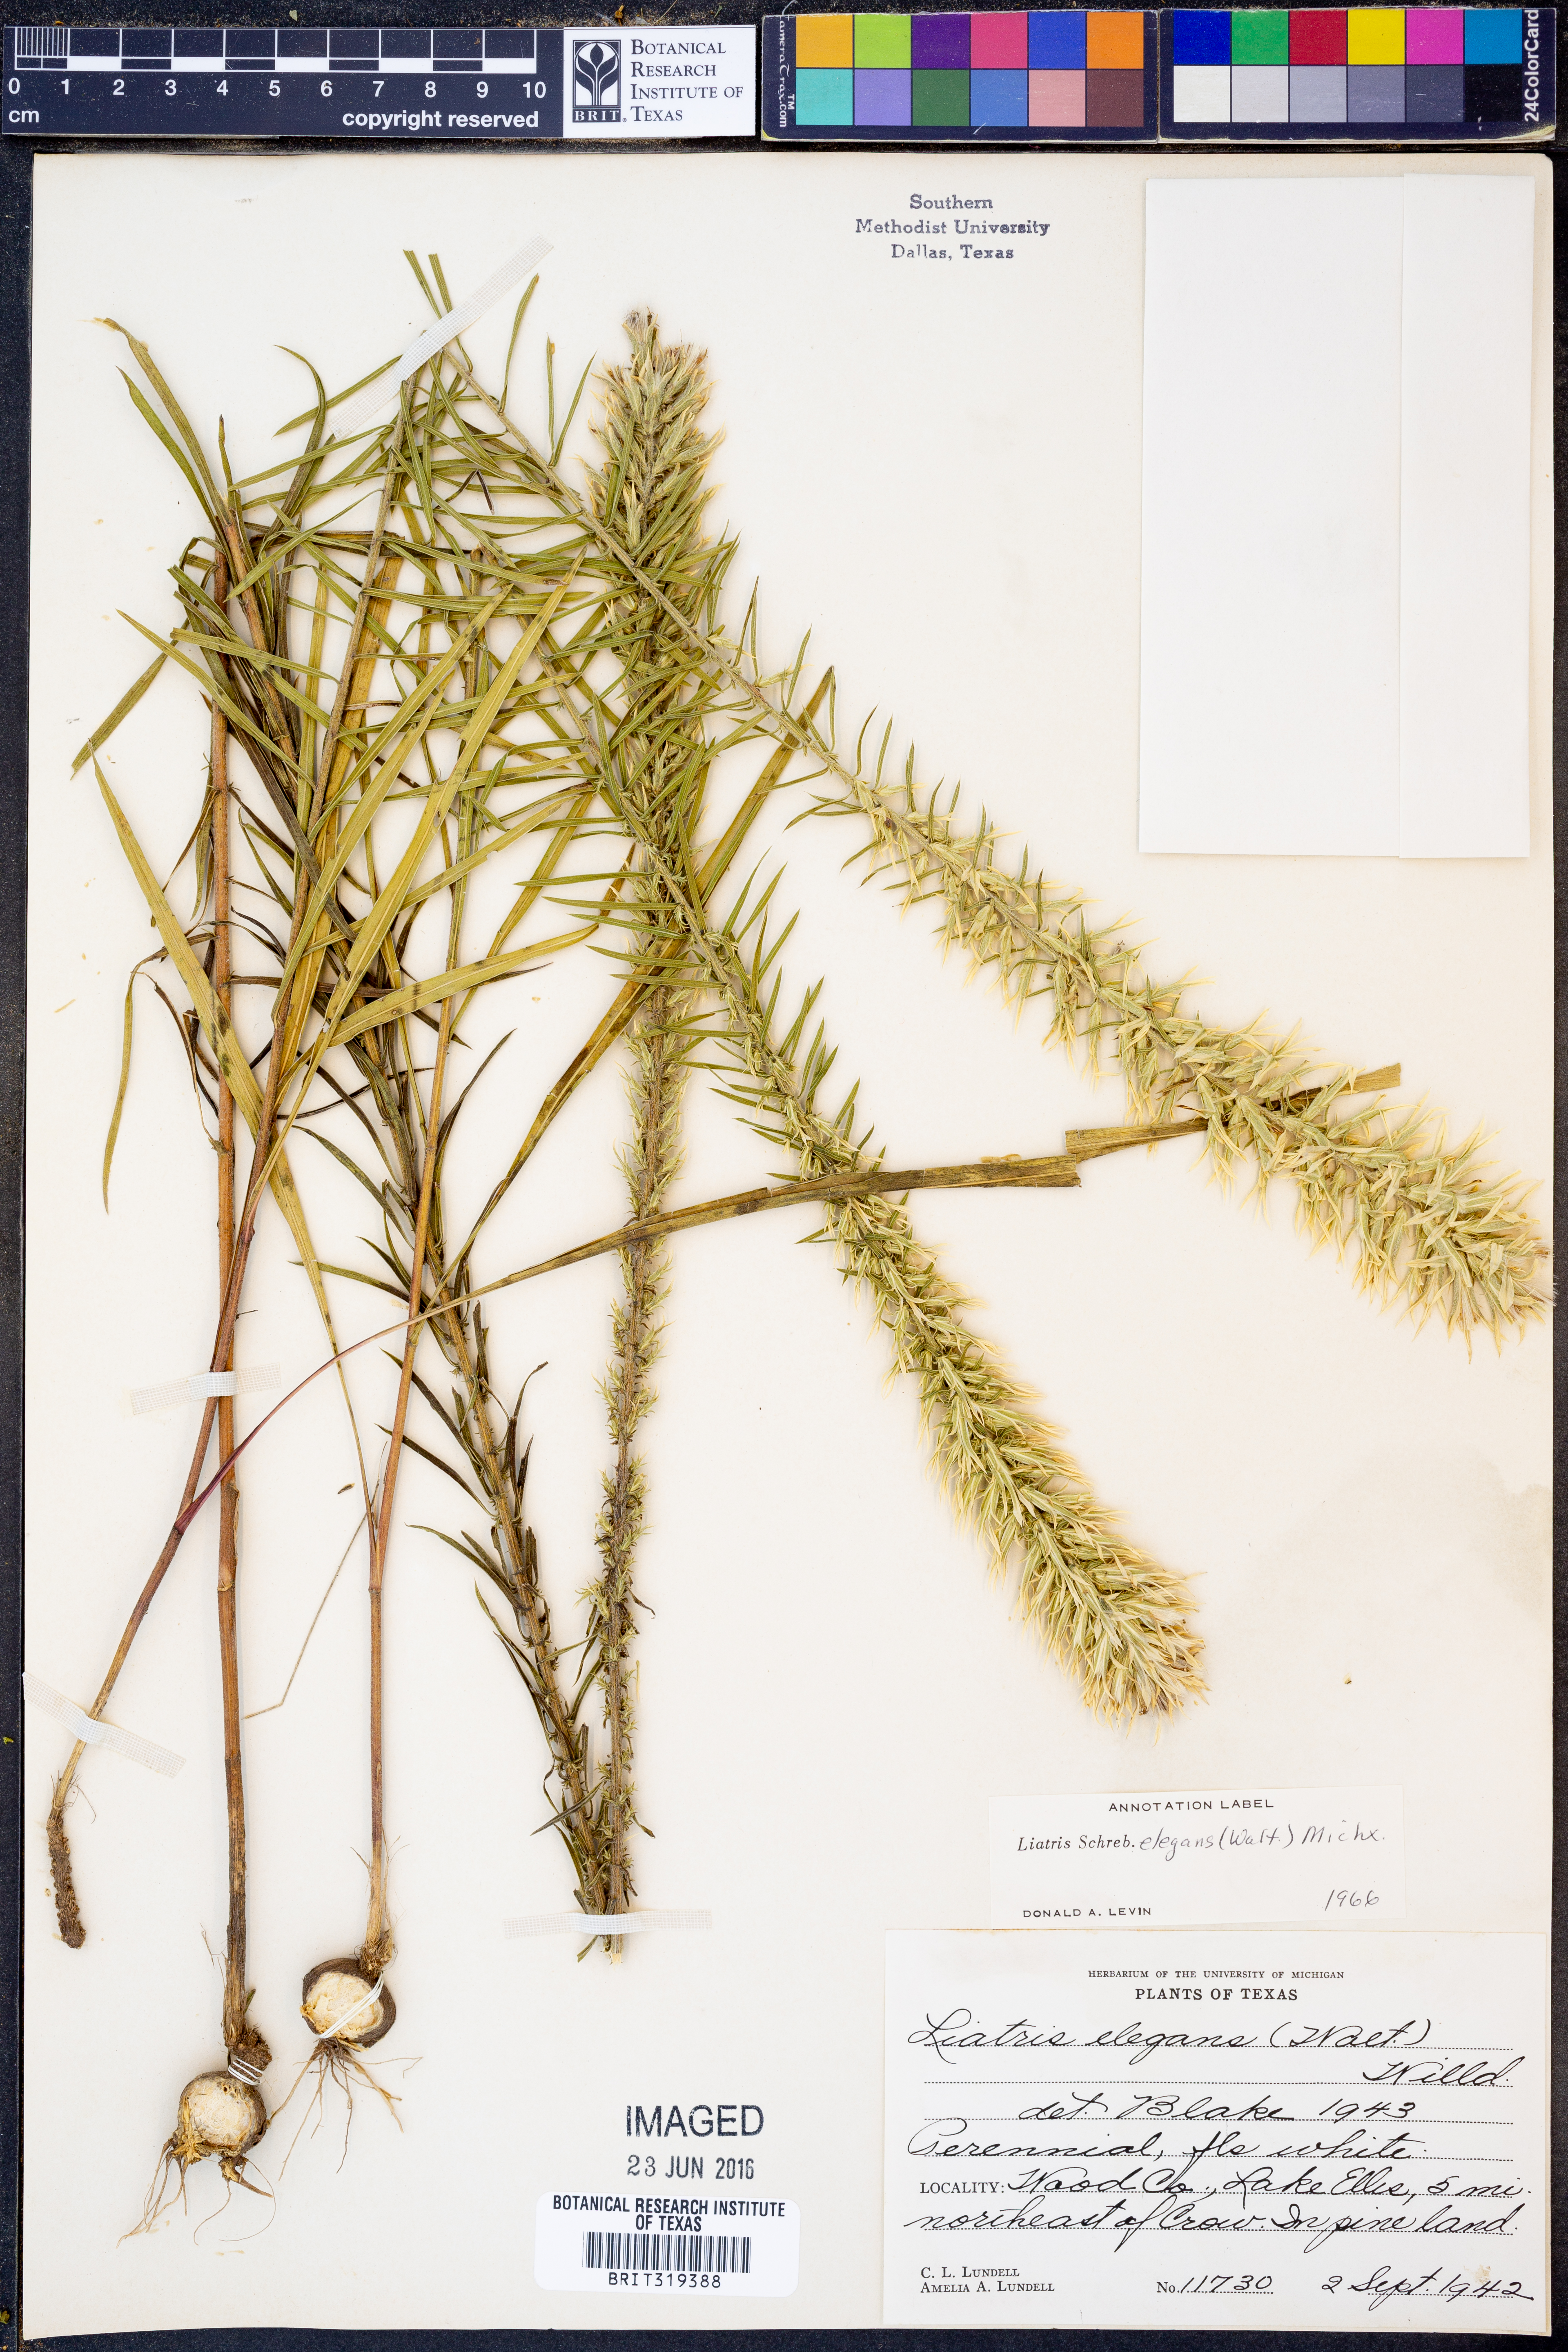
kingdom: Plantae
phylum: Tracheophyta
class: Magnoliopsida
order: Asterales
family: Asteraceae
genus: Liatris
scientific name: Liatris elegans
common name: Pinkscale gayfeather
